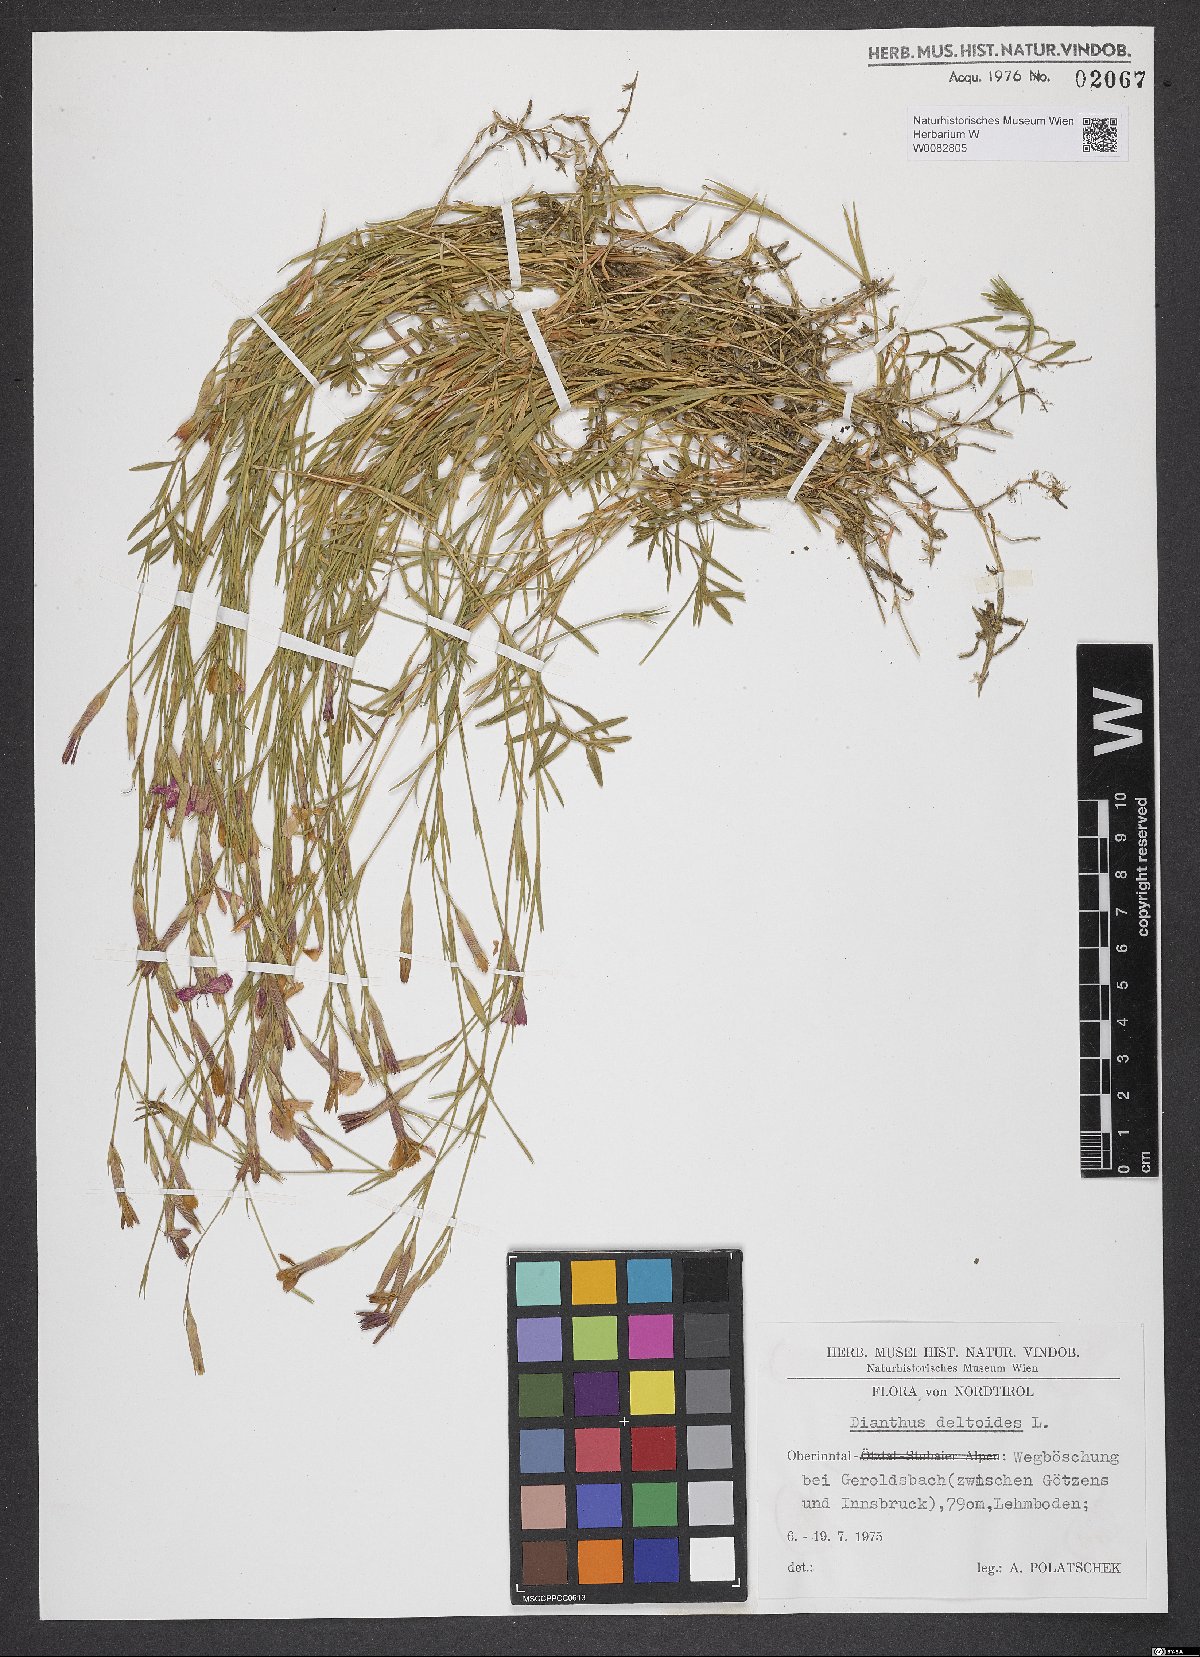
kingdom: Plantae
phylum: Tracheophyta
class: Magnoliopsida
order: Caryophyllales
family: Caryophyllaceae
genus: Dianthus
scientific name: Dianthus deltoides
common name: Maiden pink
